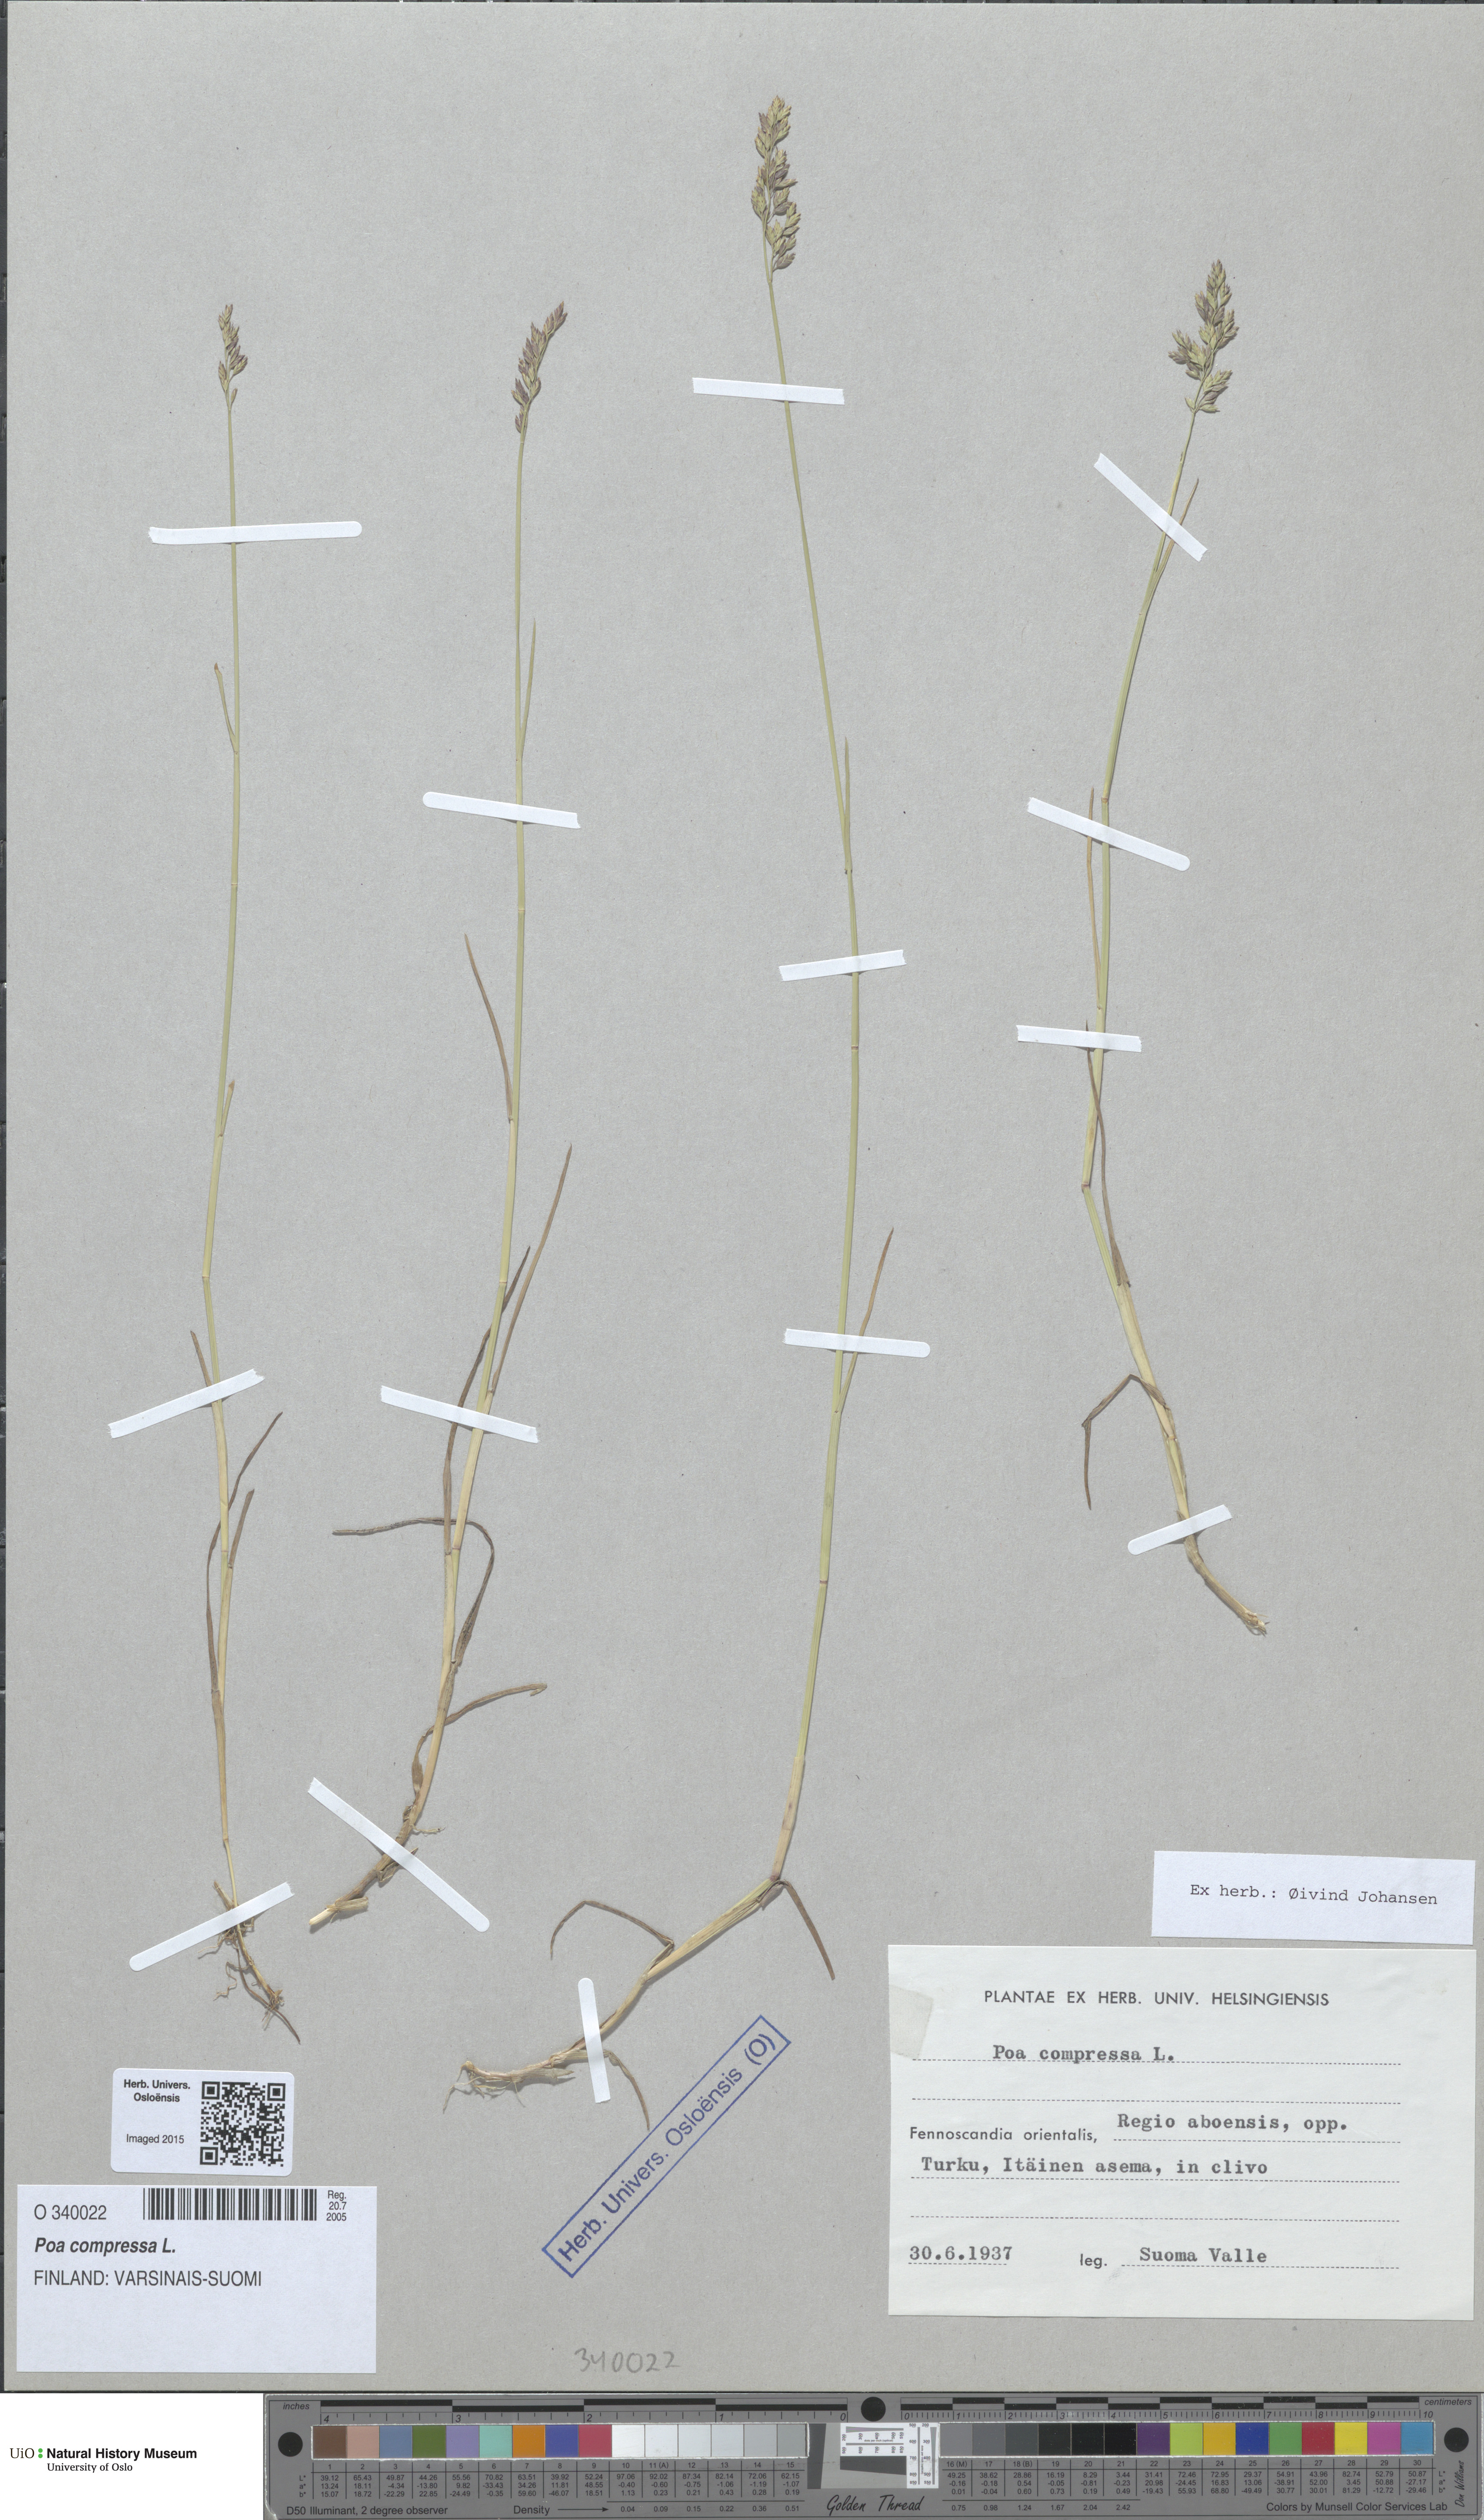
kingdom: Plantae
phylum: Tracheophyta
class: Liliopsida
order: Poales
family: Poaceae
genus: Poa
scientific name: Poa compressa
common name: Canada bluegrass
